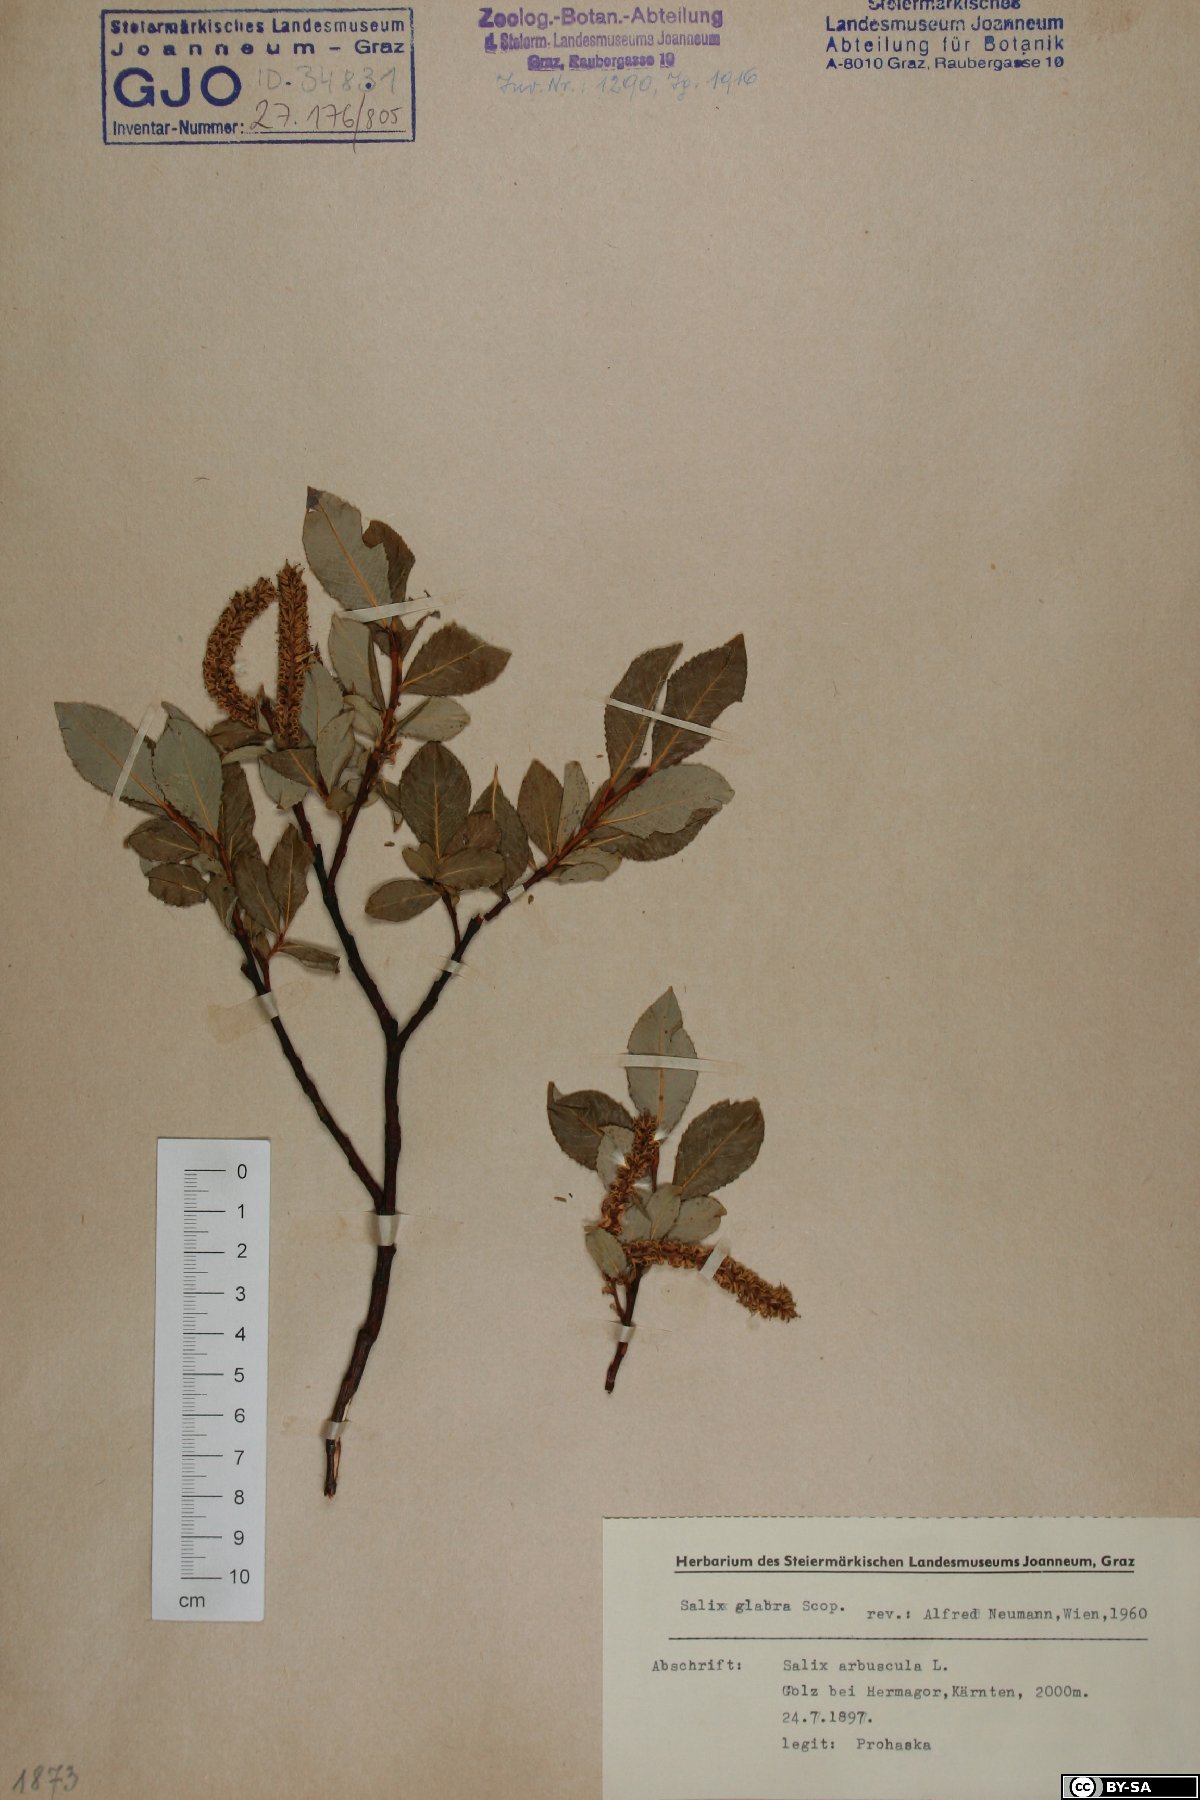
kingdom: Plantae
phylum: Tracheophyta
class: Magnoliopsida
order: Malpighiales
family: Salicaceae
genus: Salix
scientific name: Salix glabra
